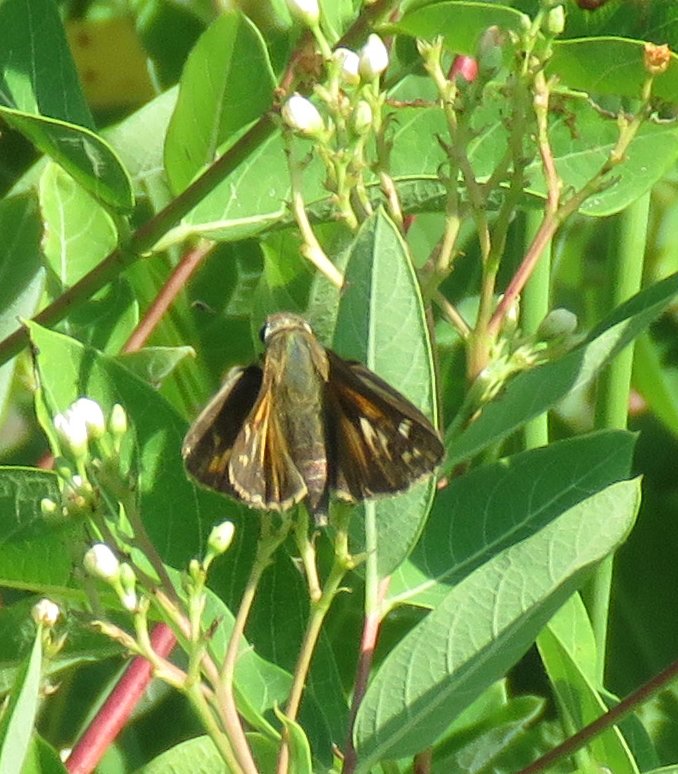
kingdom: Animalia
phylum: Arthropoda
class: Insecta
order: Lepidoptera
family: Hesperiidae
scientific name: Hesperiidae
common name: Skippers
